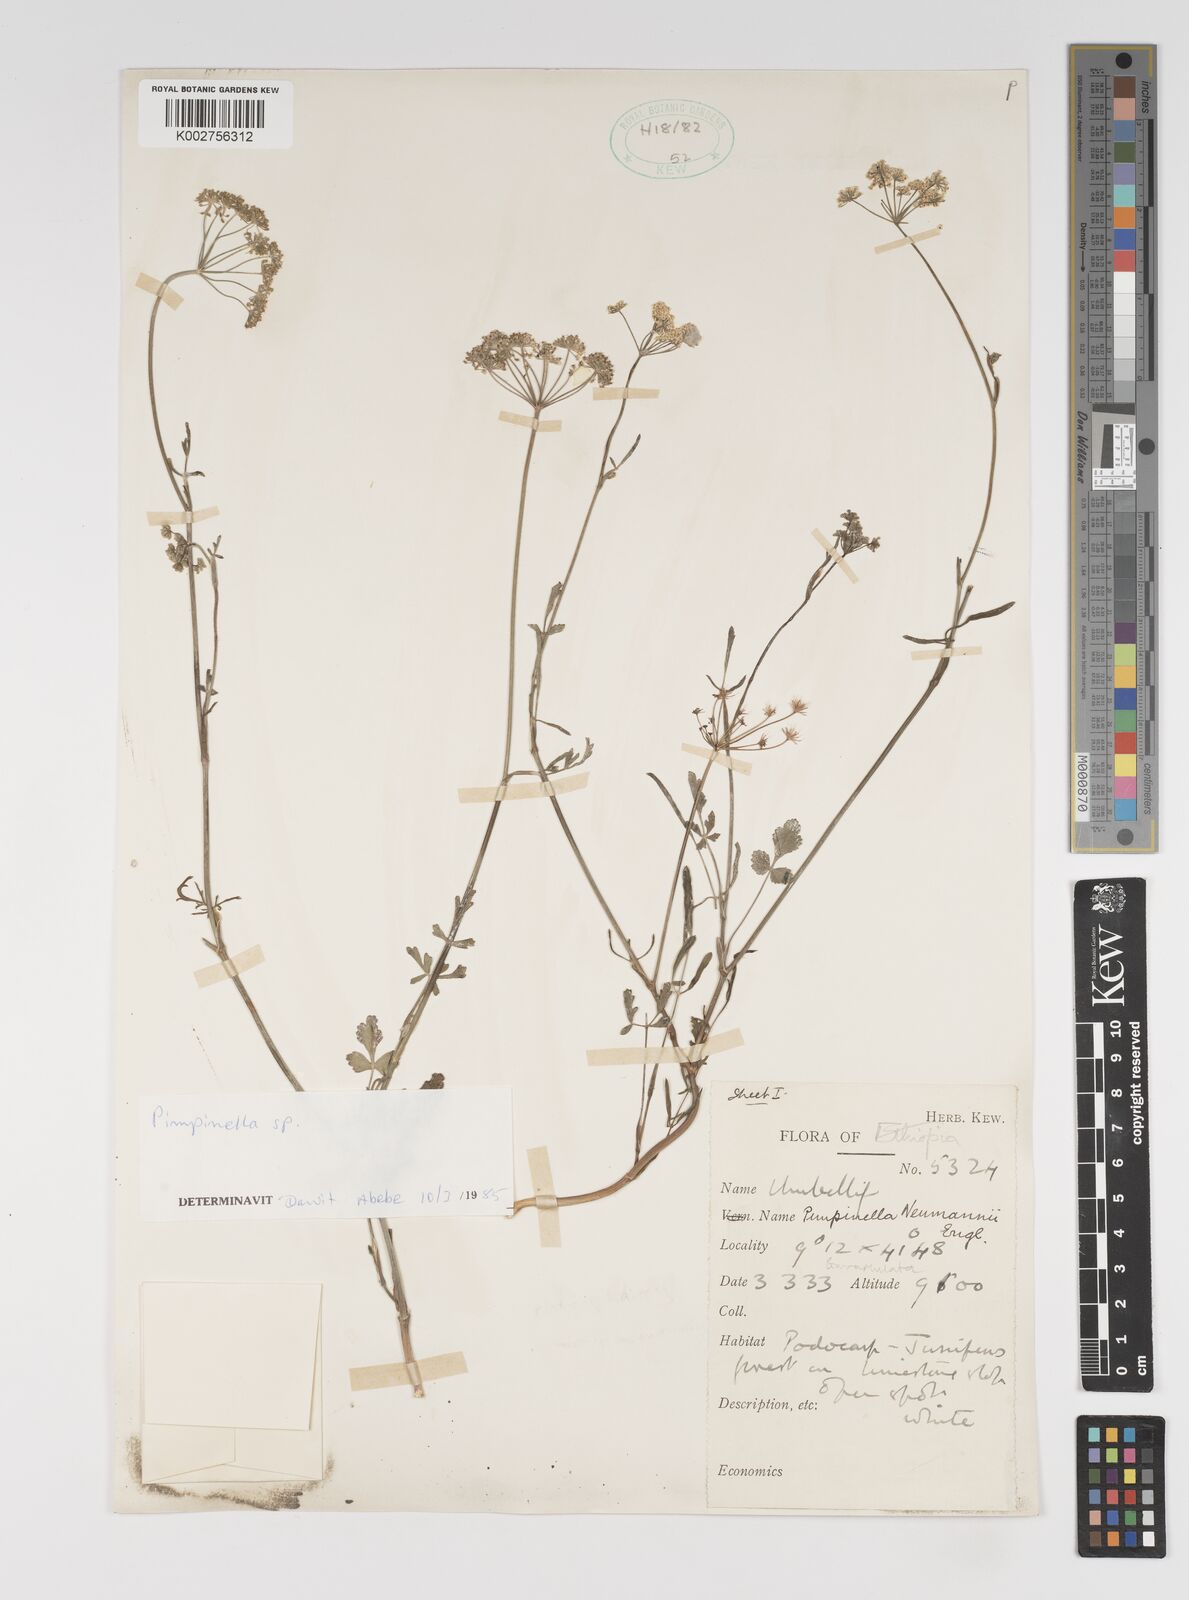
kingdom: Plantae
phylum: Tracheophyta
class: Magnoliopsida
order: Apiales
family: Apiaceae
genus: Pimpinella
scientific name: Pimpinella peregrina
